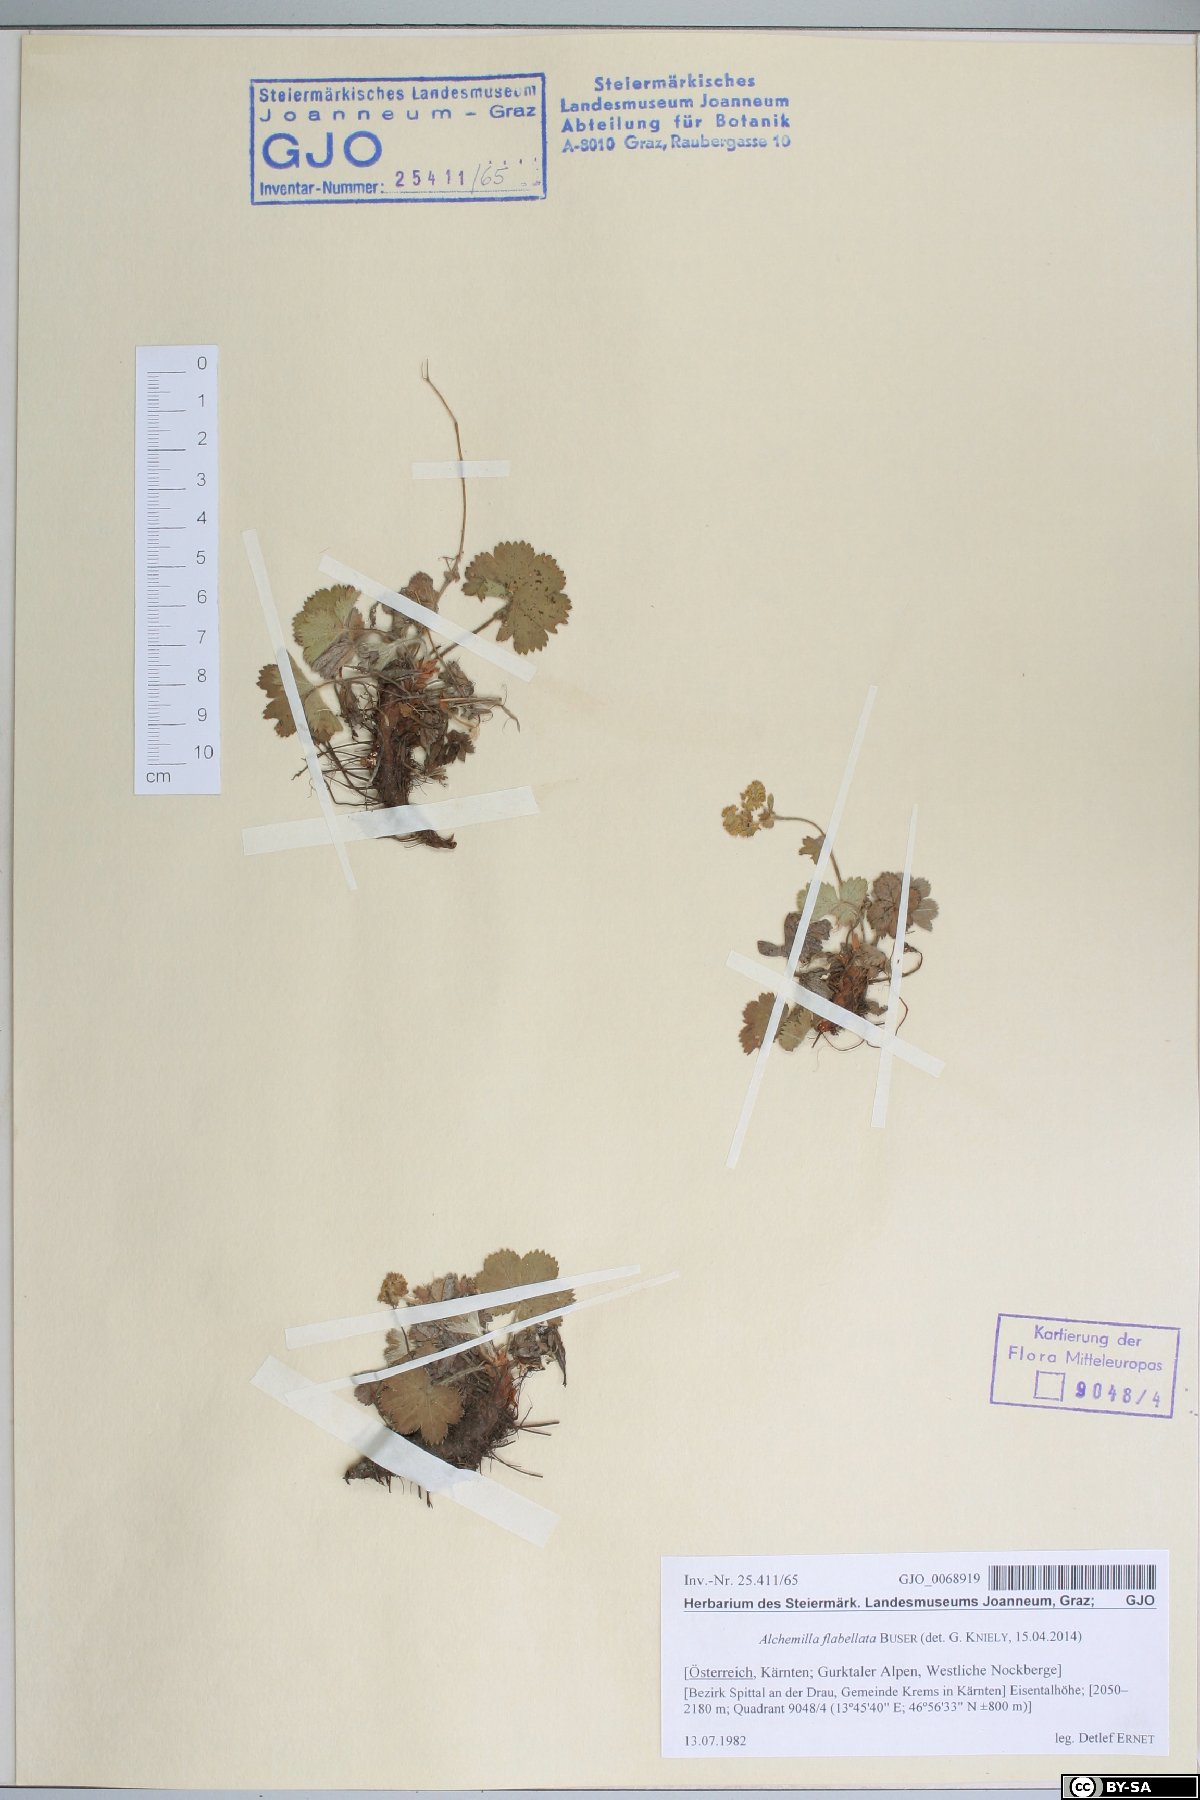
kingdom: Plantae
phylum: Tracheophyta
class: Magnoliopsida
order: Rosales
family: Rosaceae
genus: Alchemilla
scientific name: Alchemilla flabellata
